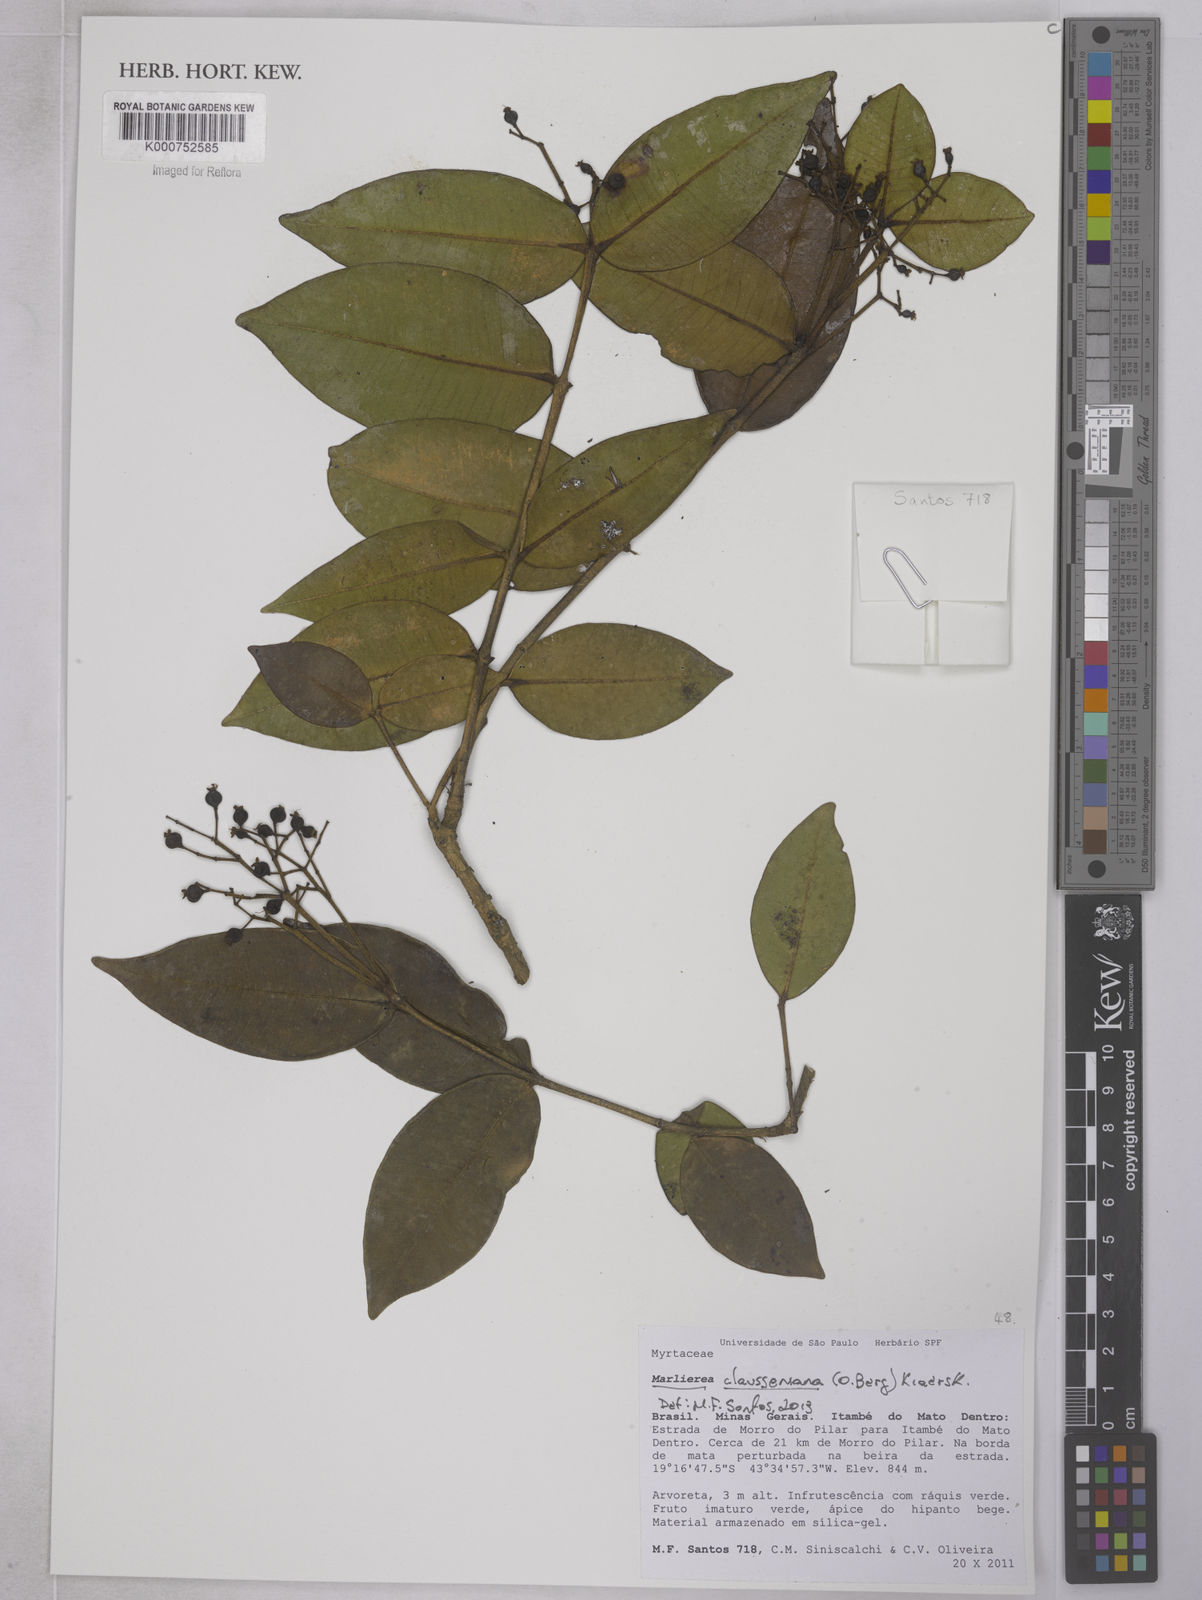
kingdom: Plantae
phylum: Tracheophyta
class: Magnoliopsida
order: Myrtales
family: Myrtaceae
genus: Marlierea
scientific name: Marlierea clausseniana
